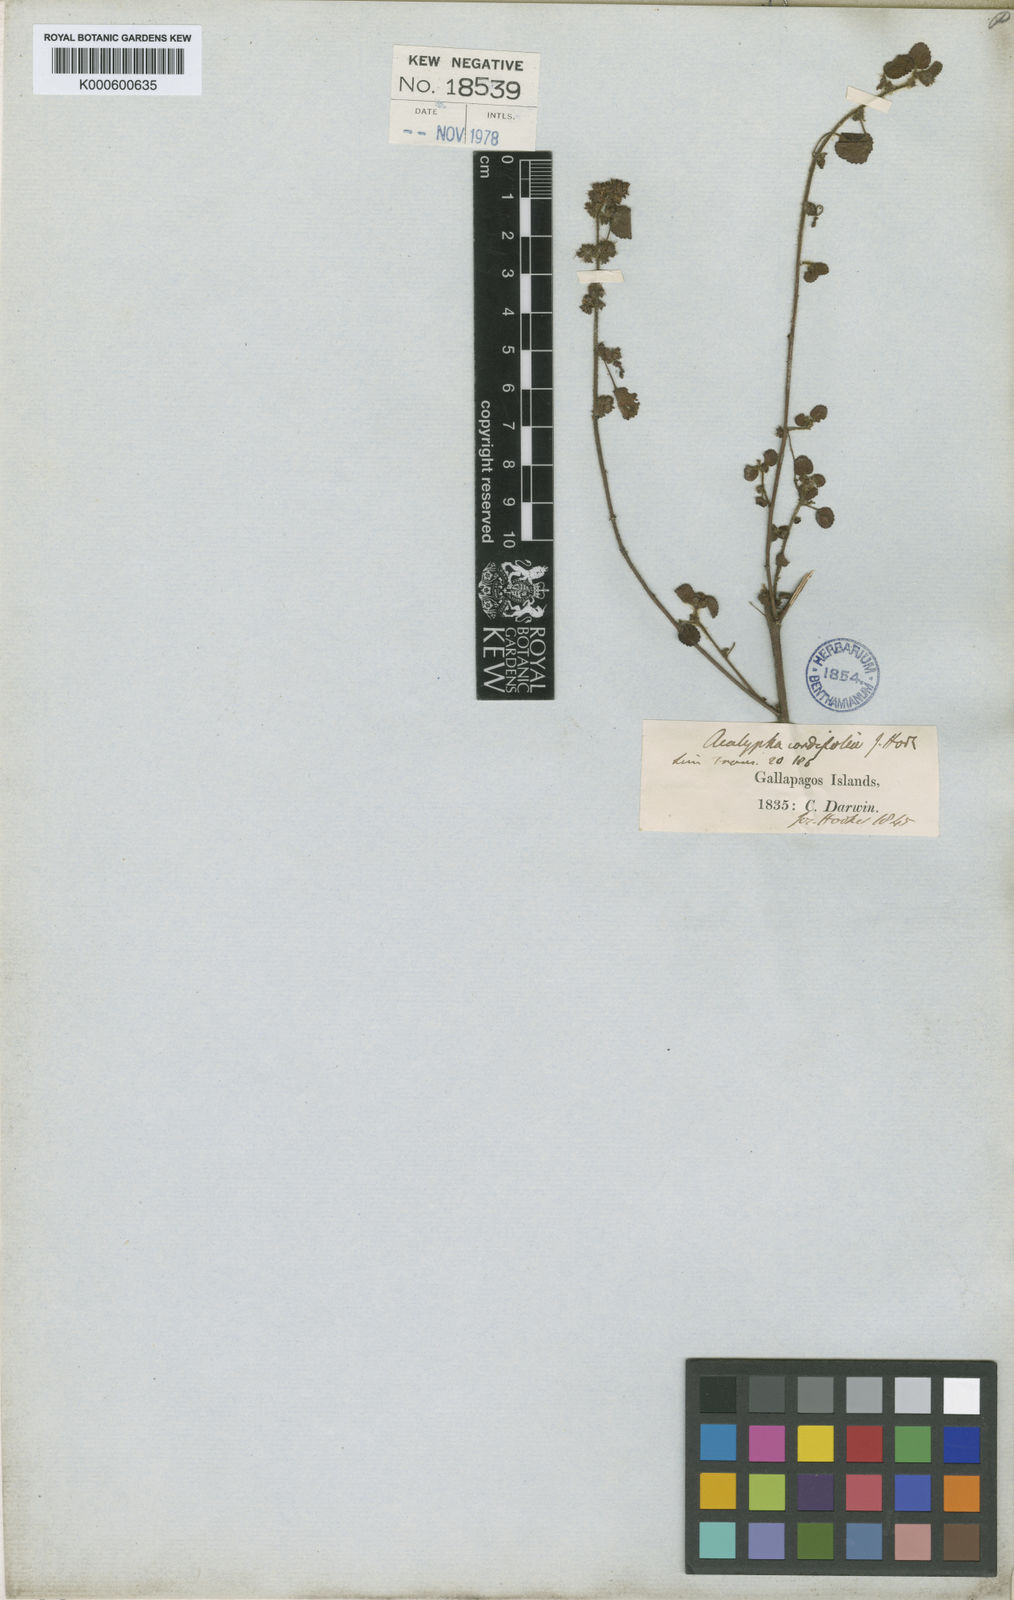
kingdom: Plantae
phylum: Tracheophyta
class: Magnoliopsida
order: Malpighiales
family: Euphorbiaceae
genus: Acalypha
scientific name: Acalypha parvula
